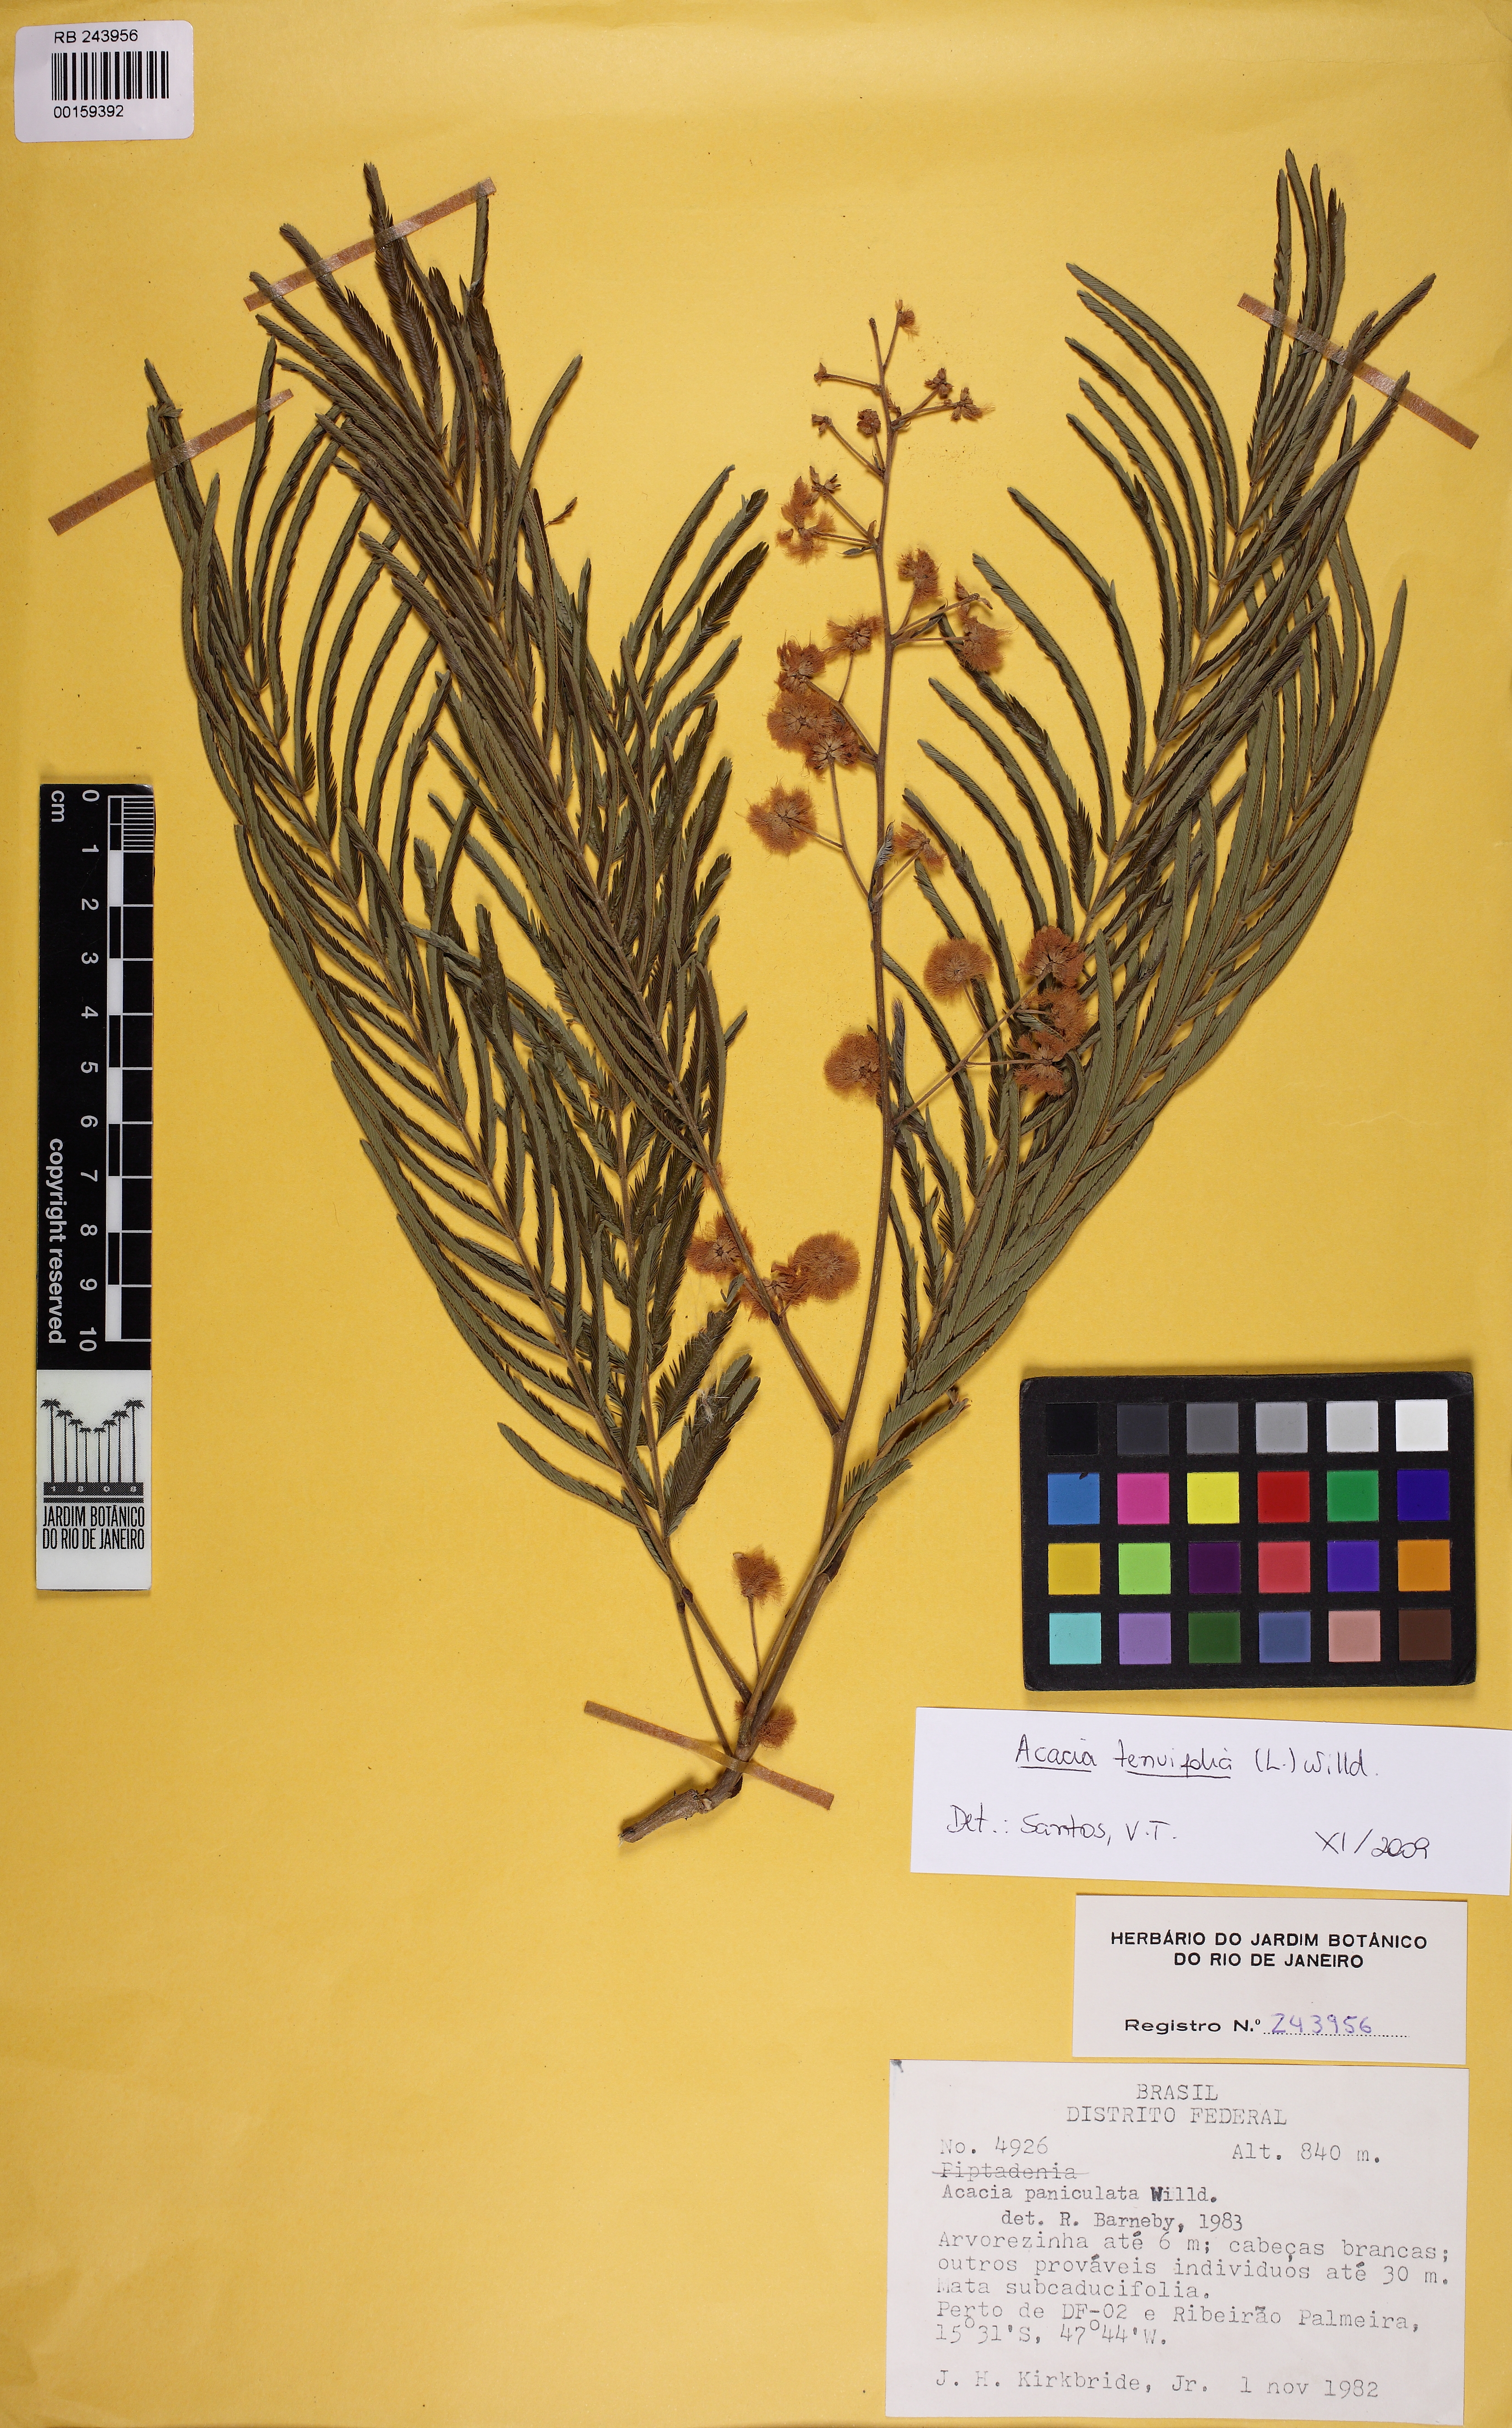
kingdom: Plantae
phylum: Tracheophyta
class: Magnoliopsida
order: Fabales
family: Fabaceae
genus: Senegalia
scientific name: Senegalia tenuifolia
